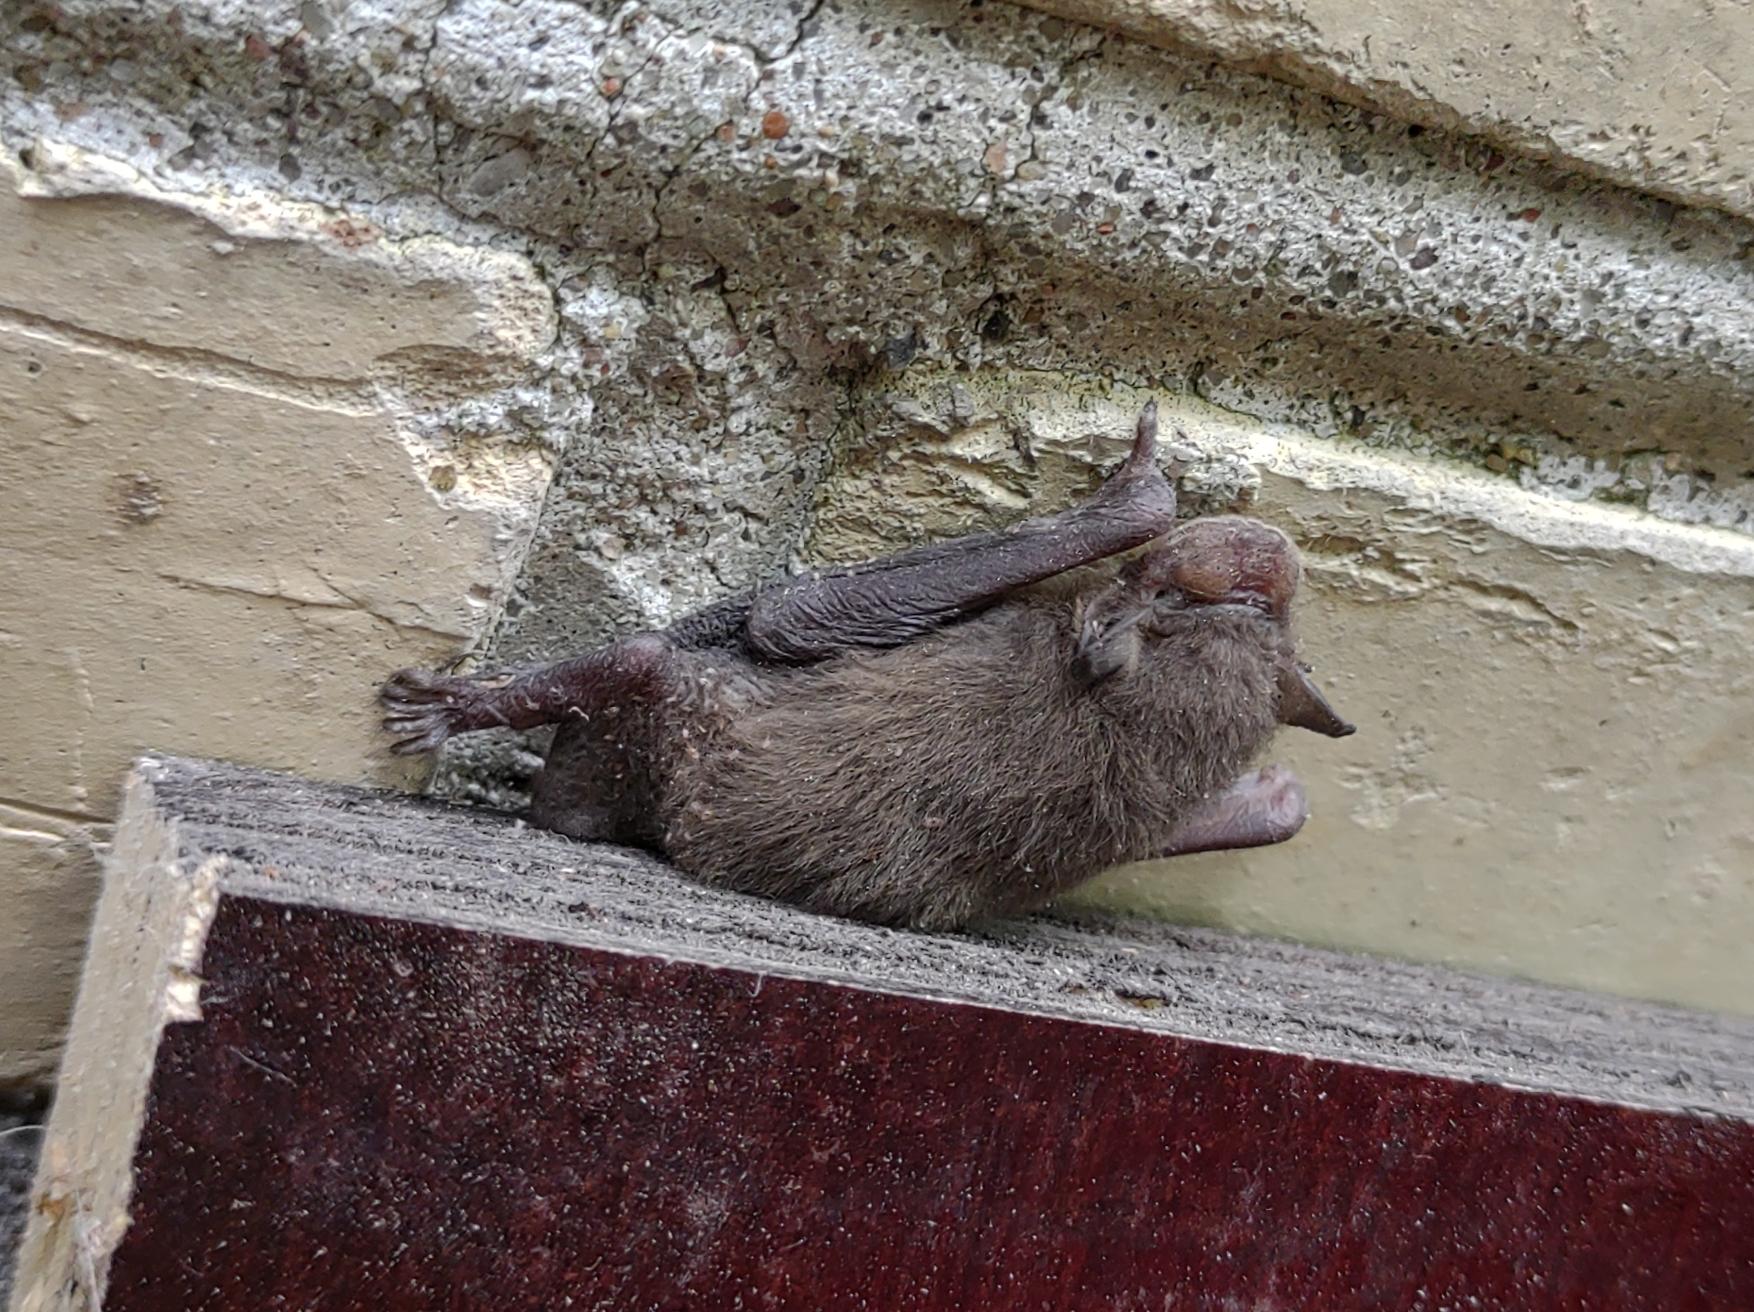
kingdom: Animalia
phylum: Chordata
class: Mammalia
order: Chiroptera
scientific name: Chiroptera
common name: Flagermus
